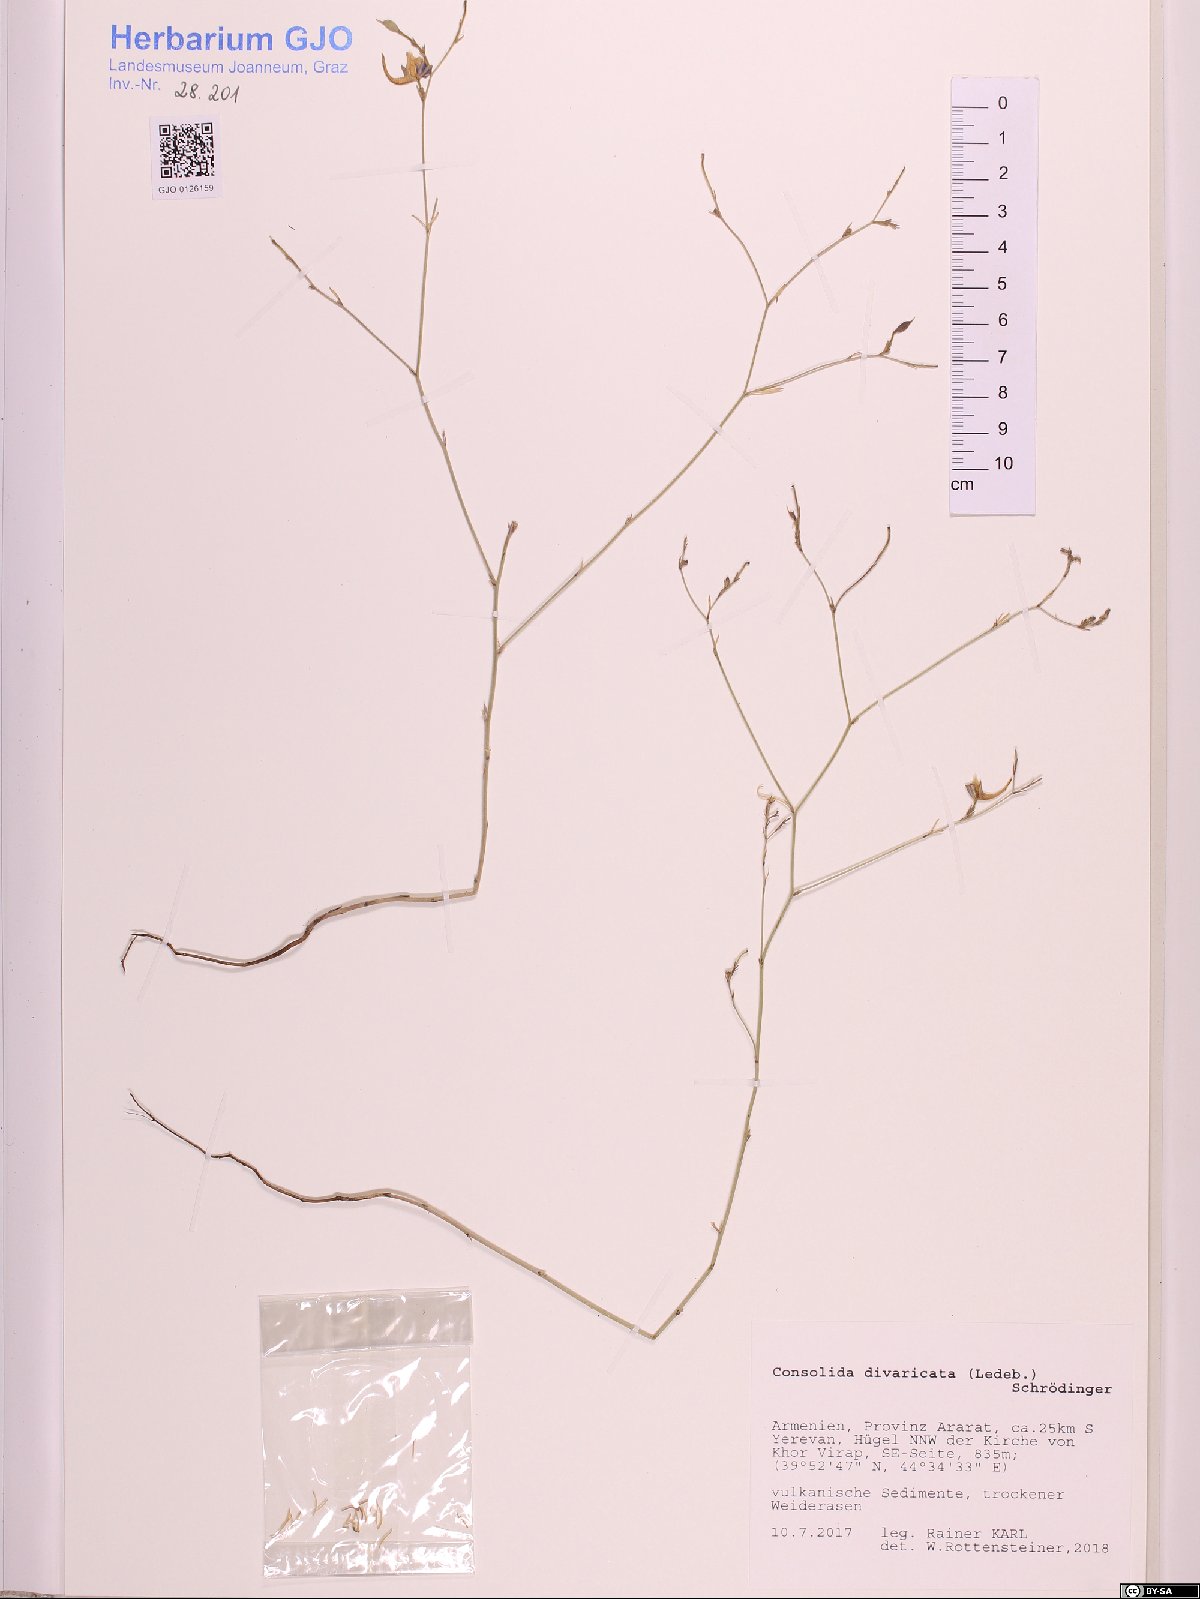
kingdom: Plantae
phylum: Tracheophyta
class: Magnoliopsida
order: Ranunculales
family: Ranunculaceae
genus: Delphinium
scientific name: Delphinium consolida
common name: Branching larkspur
